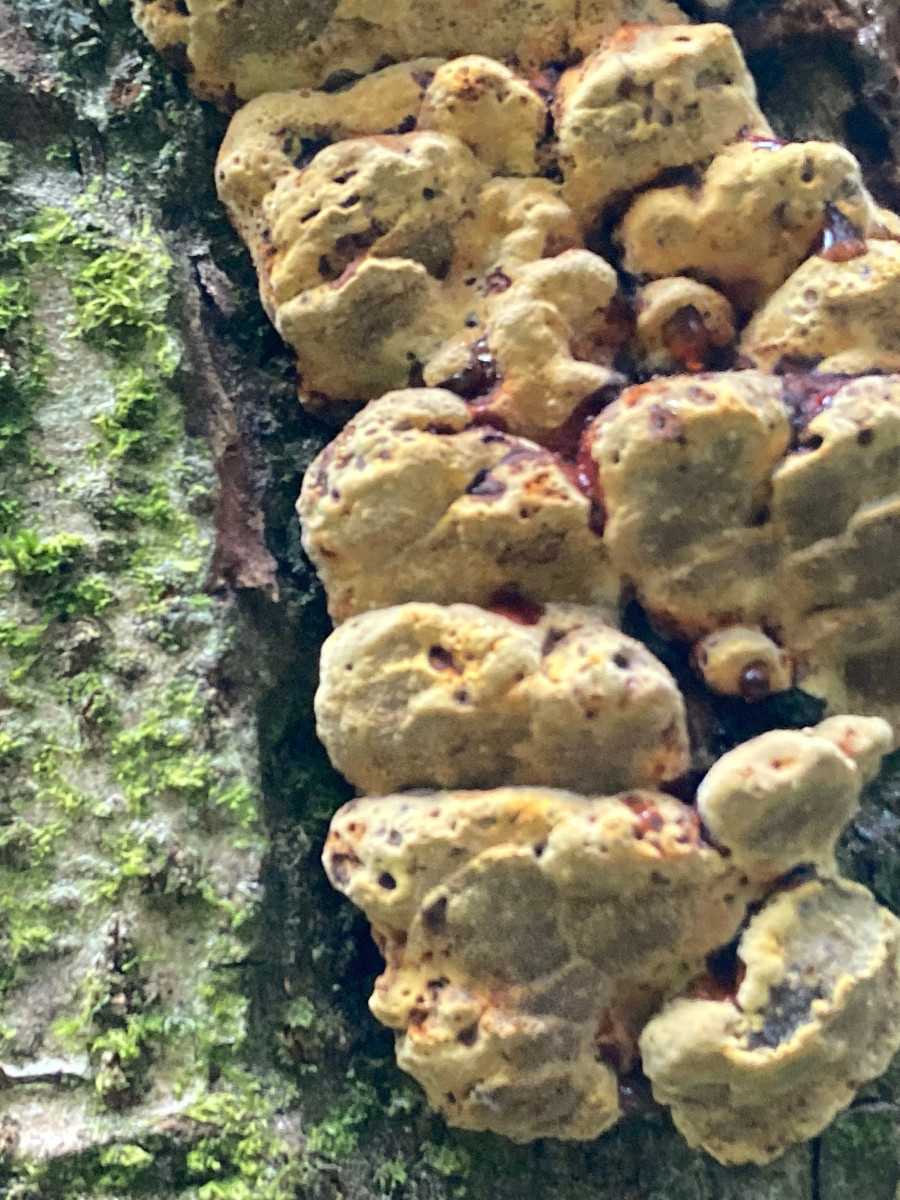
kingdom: Fungi
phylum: Basidiomycota
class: Agaricomycetes
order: Hymenochaetales
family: Hymenochaetaceae
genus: Xanthoporia
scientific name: Xanthoporia radiata
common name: elle-spejlporesvamp
